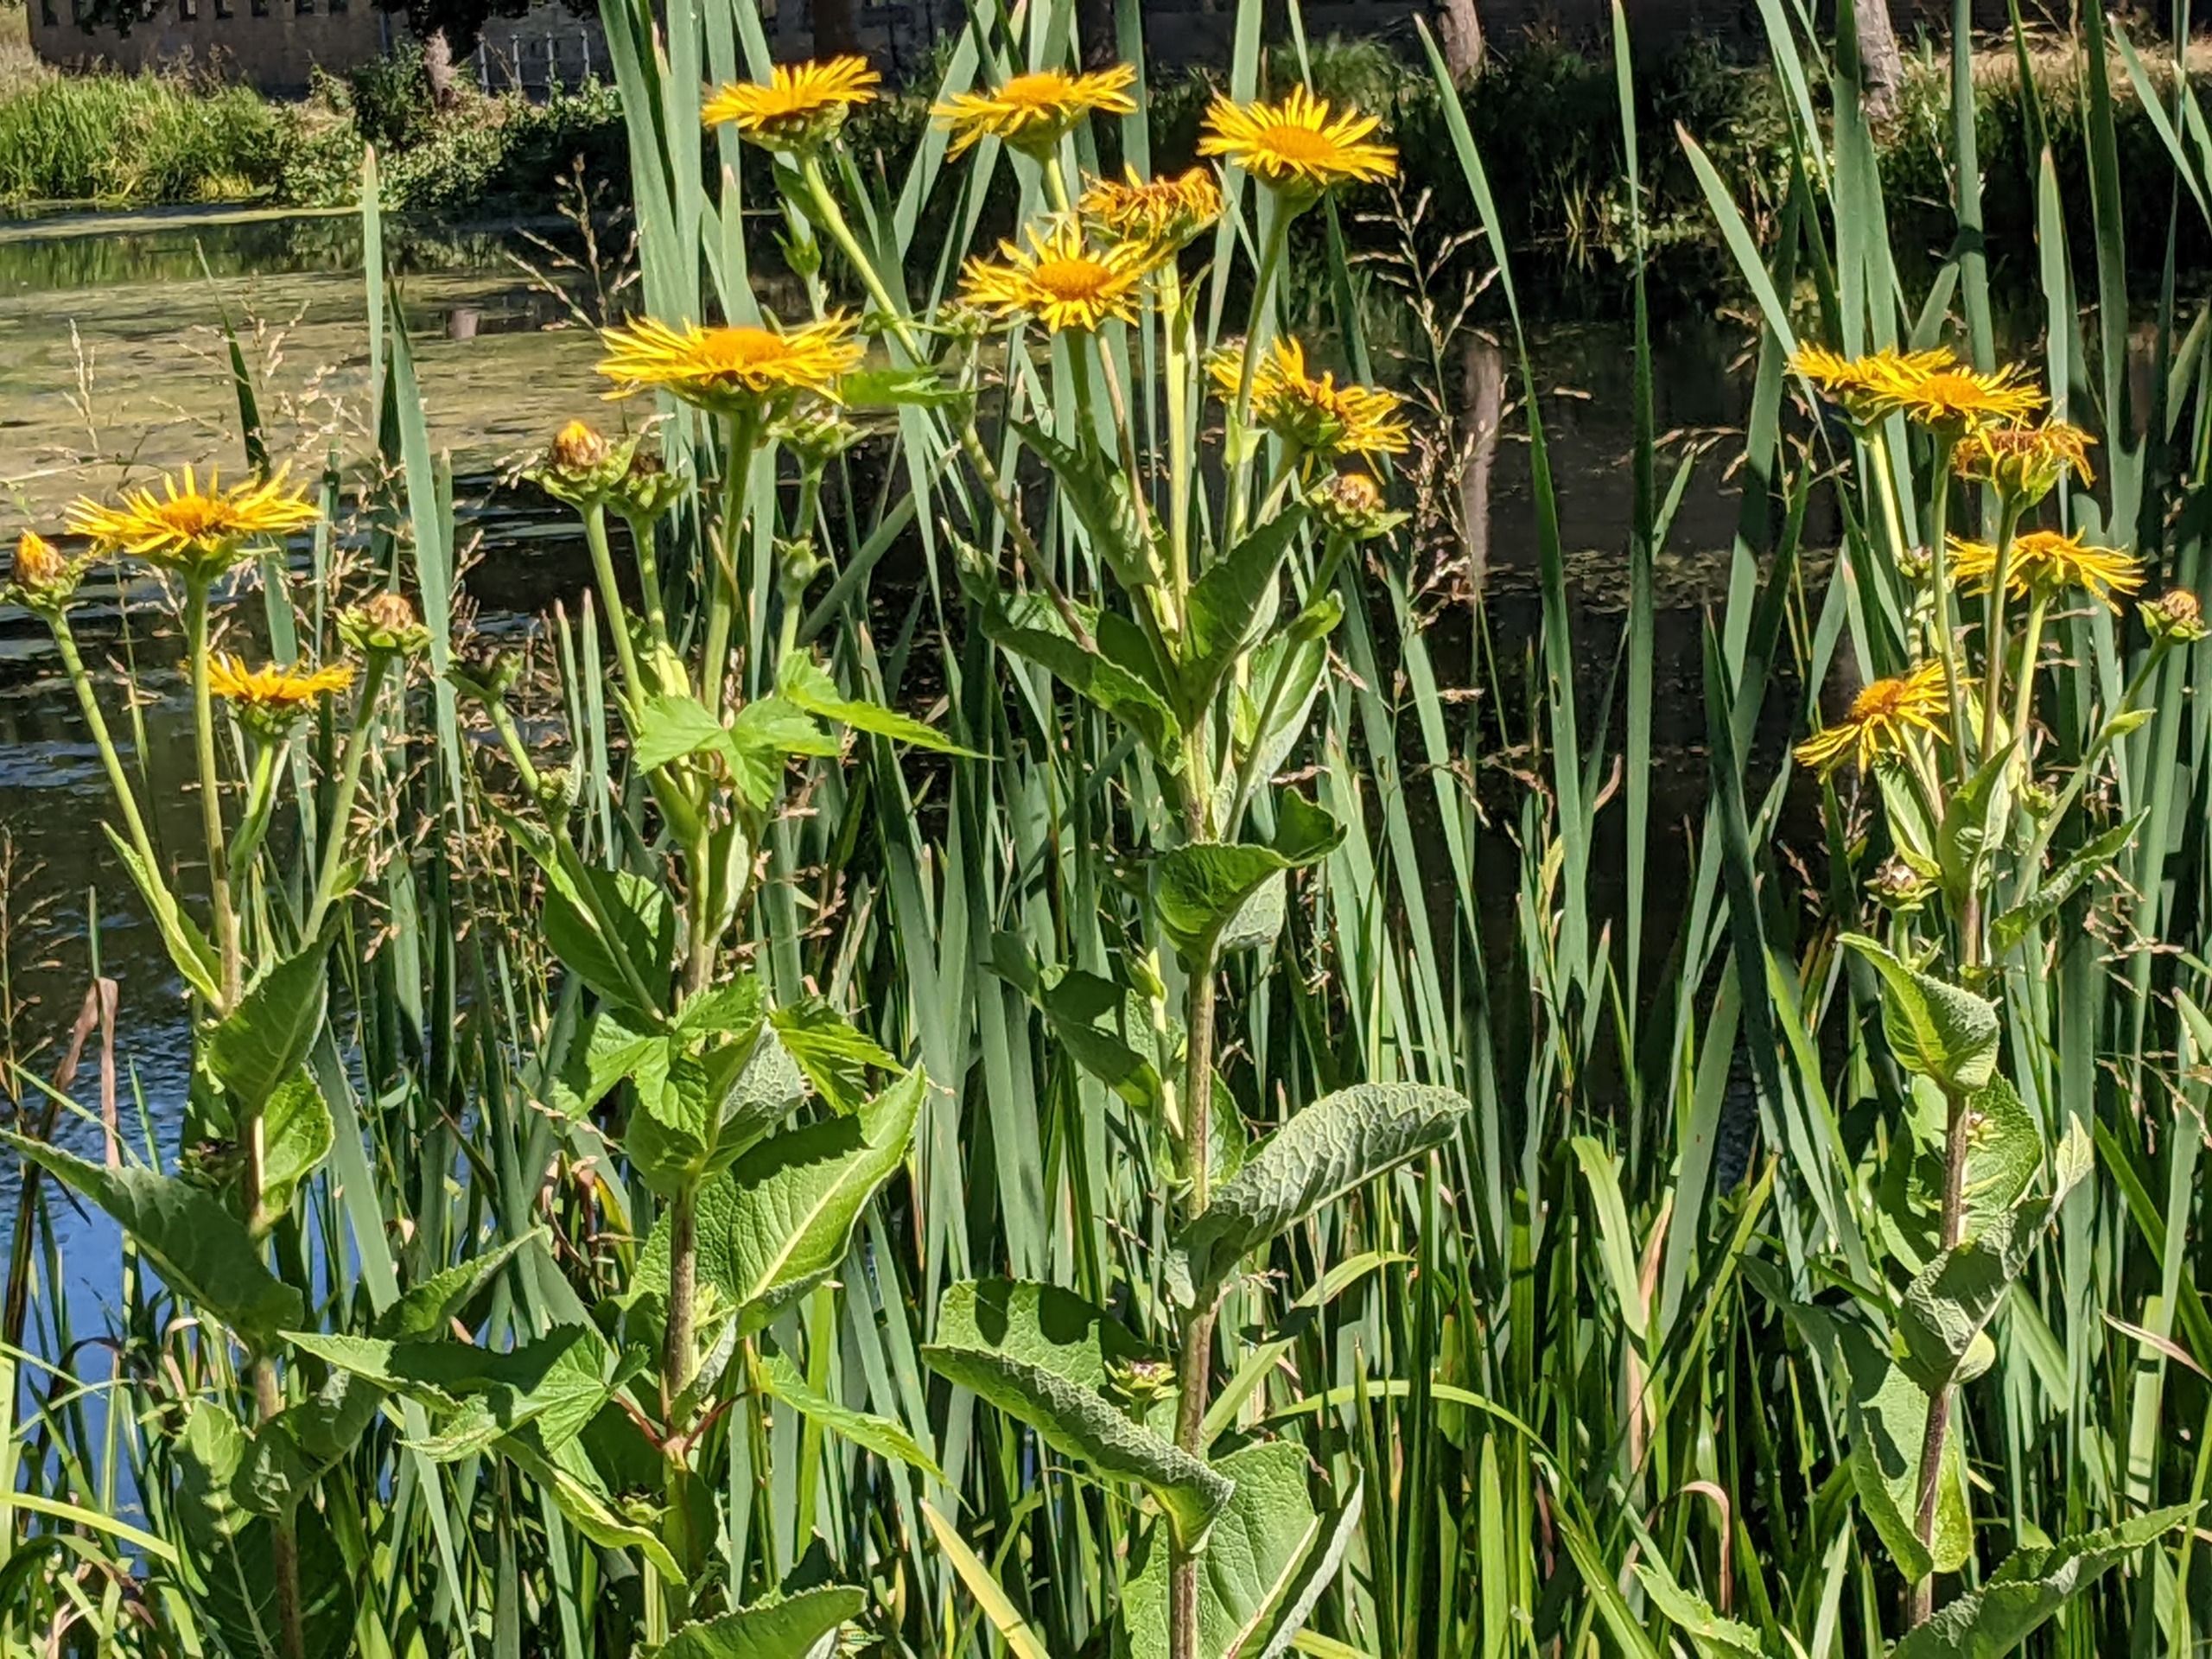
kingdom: Plantae
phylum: Tracheophyta
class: Magnoliopsida
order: Asterales
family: Asteraceae
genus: Inula
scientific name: Inula helenium
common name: Læge-alant
